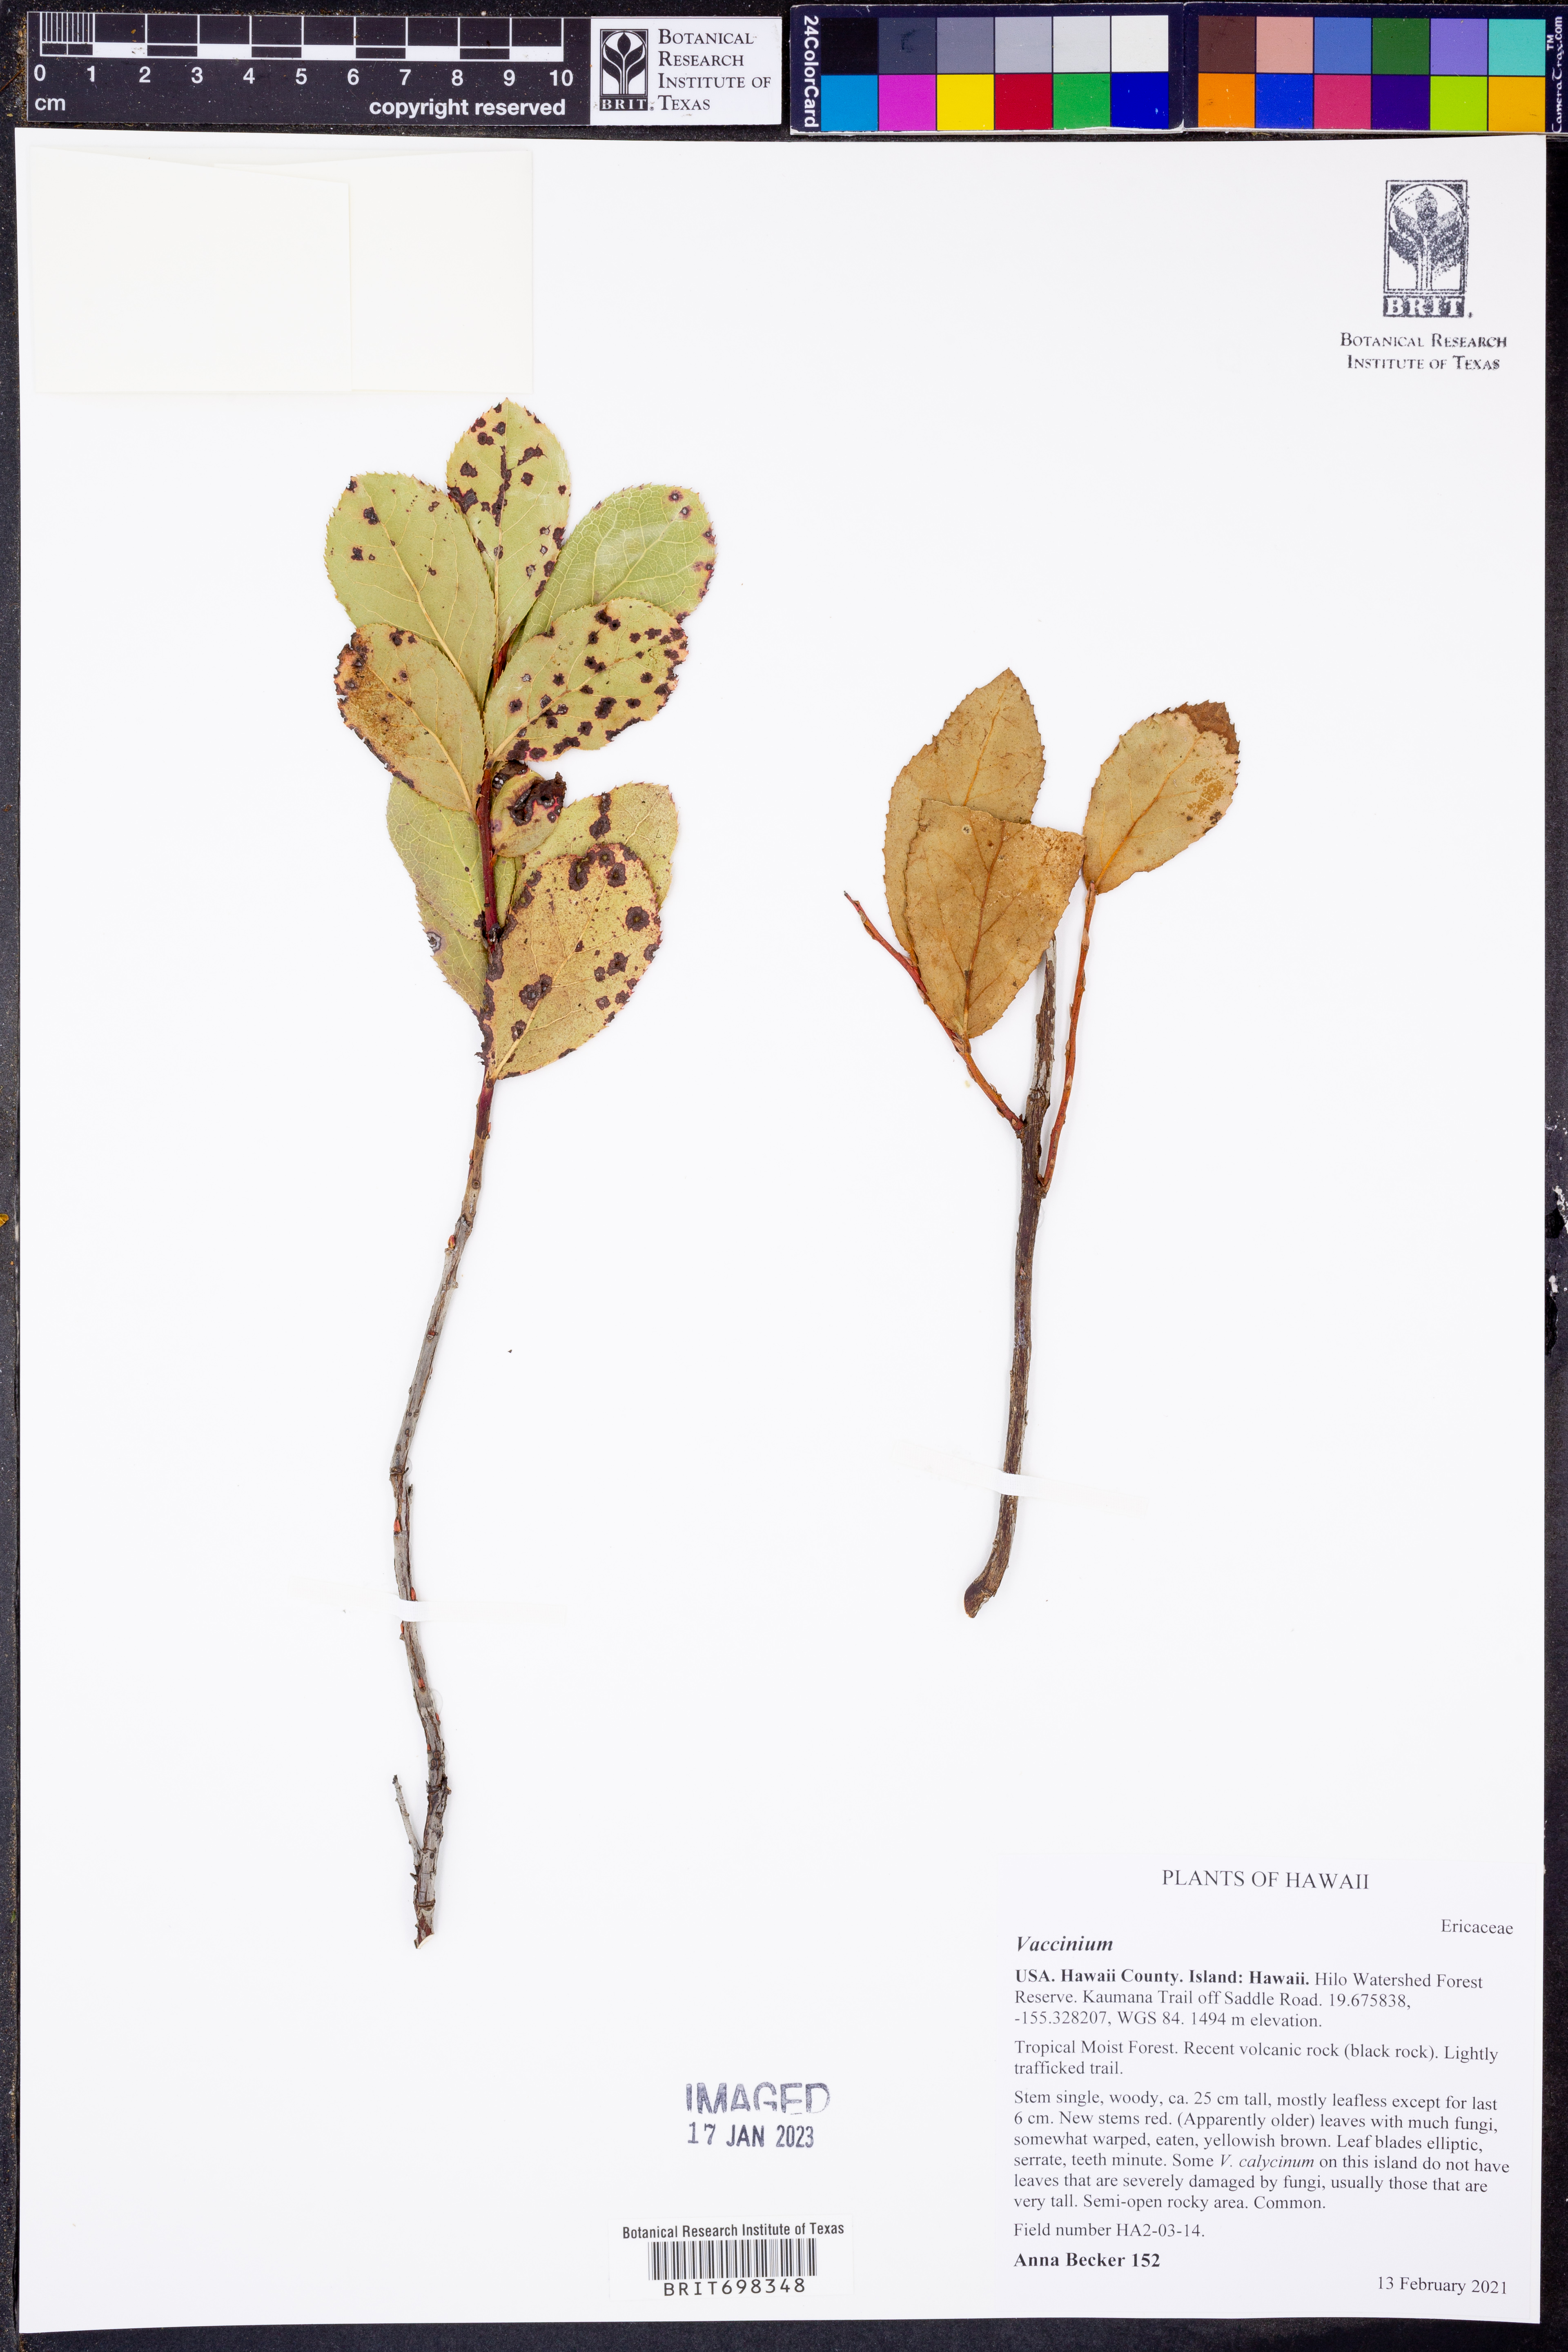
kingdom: Plantae
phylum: Tracheophyta
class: Magnoliopsida
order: Ericales
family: Ericaceae
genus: Vaccinium
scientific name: Vaccinium
